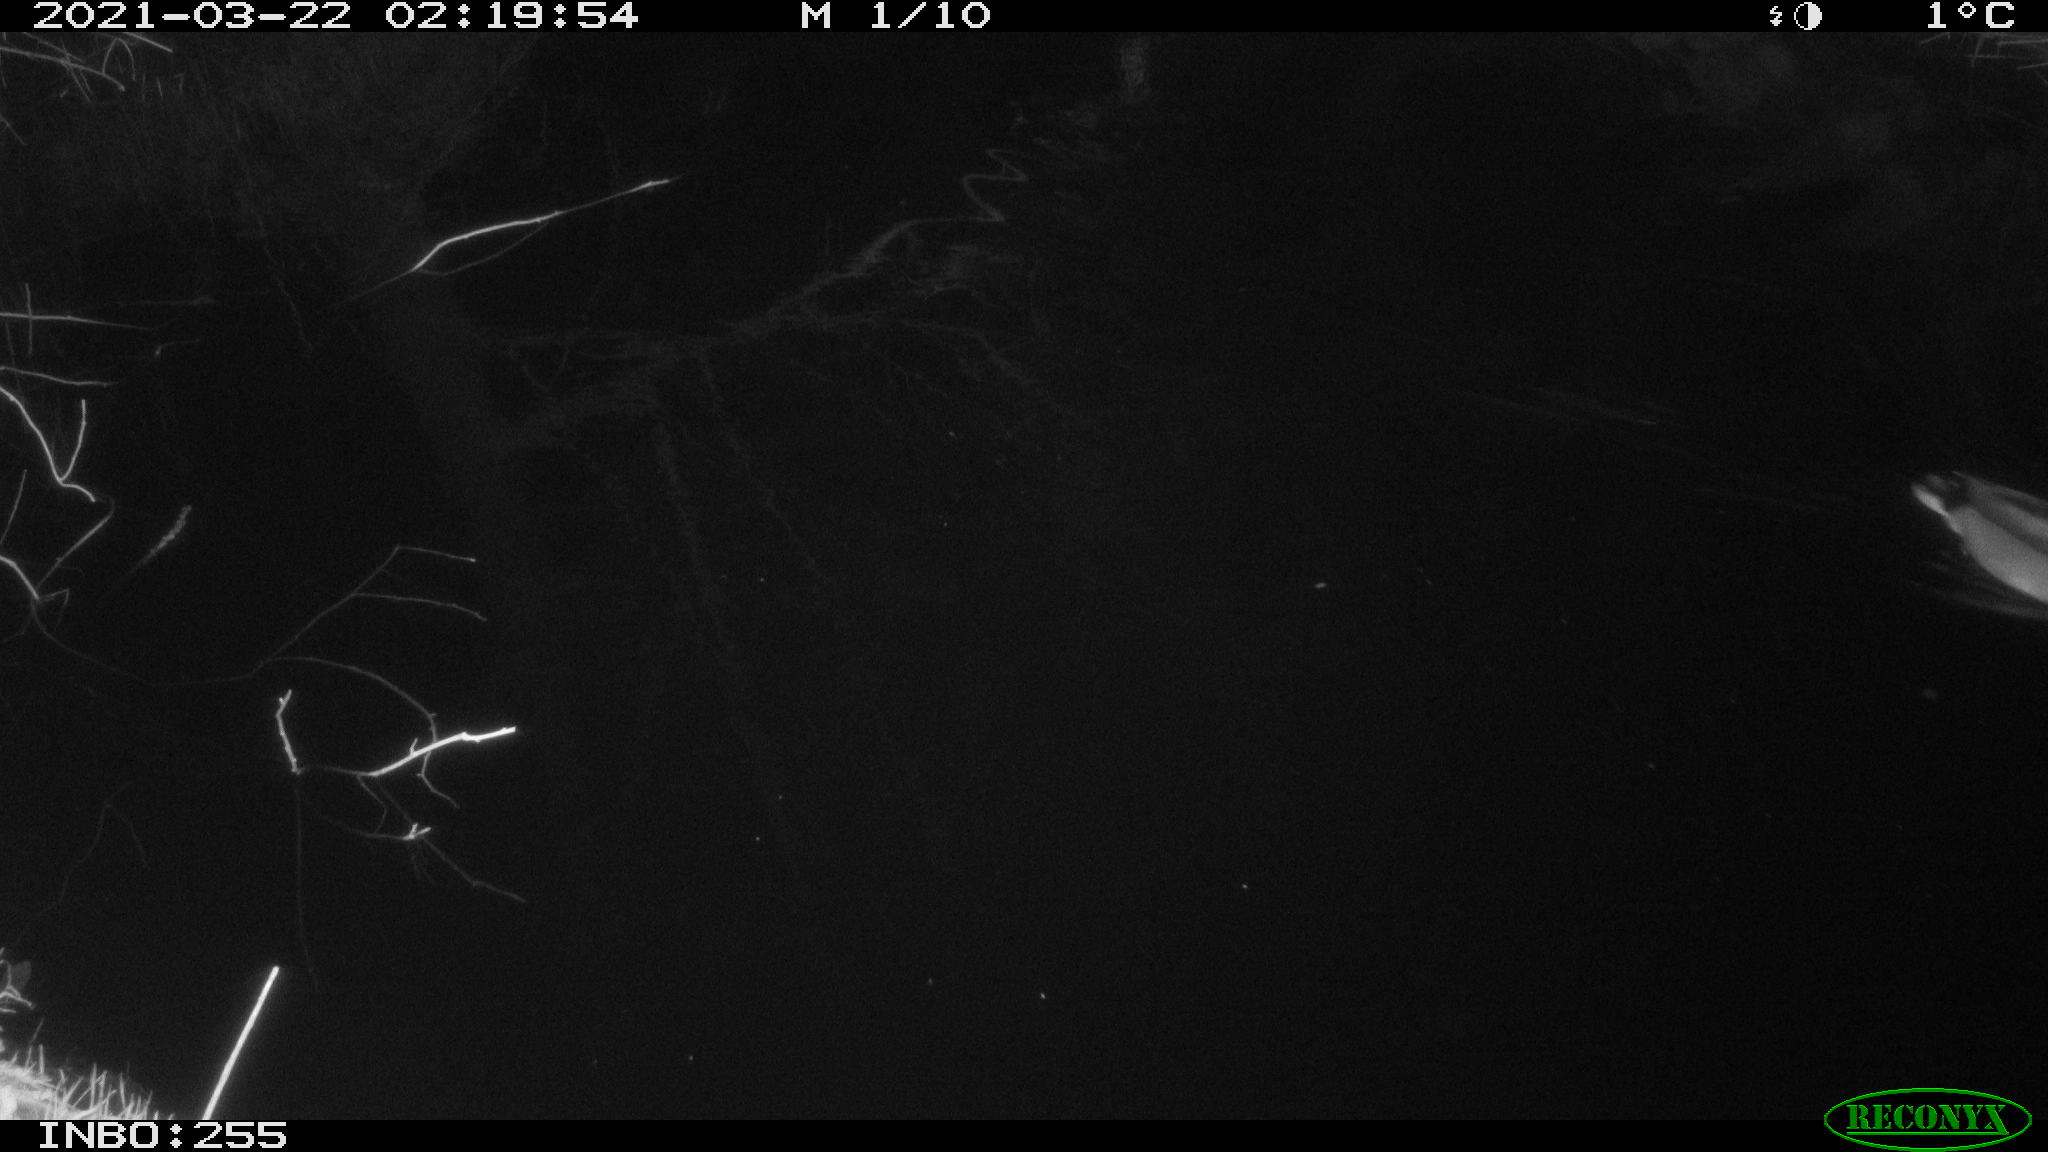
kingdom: Animalia
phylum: Chordata
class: Aves
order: Anseriformes
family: Anatidae
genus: Anas
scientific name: Anas platyrhynchos
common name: Mallard
